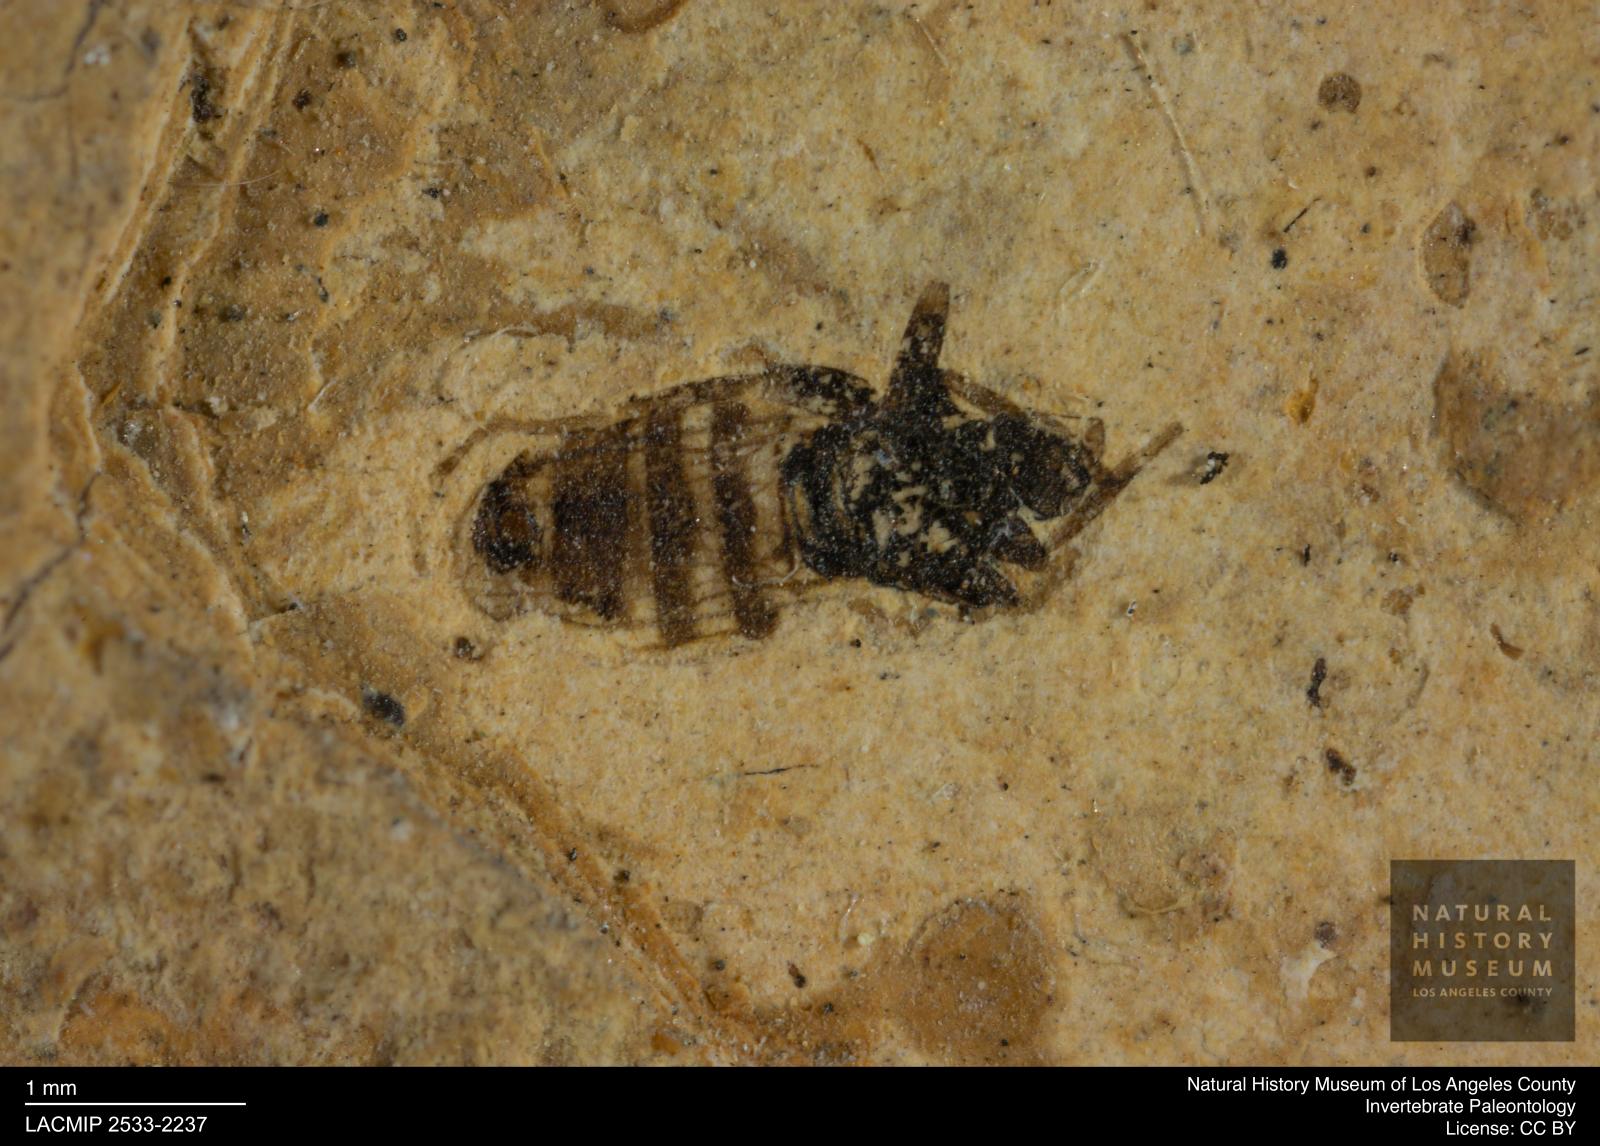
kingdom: Animalia
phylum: Arthropoda
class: Insecta
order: Diptera
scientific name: Diptera
